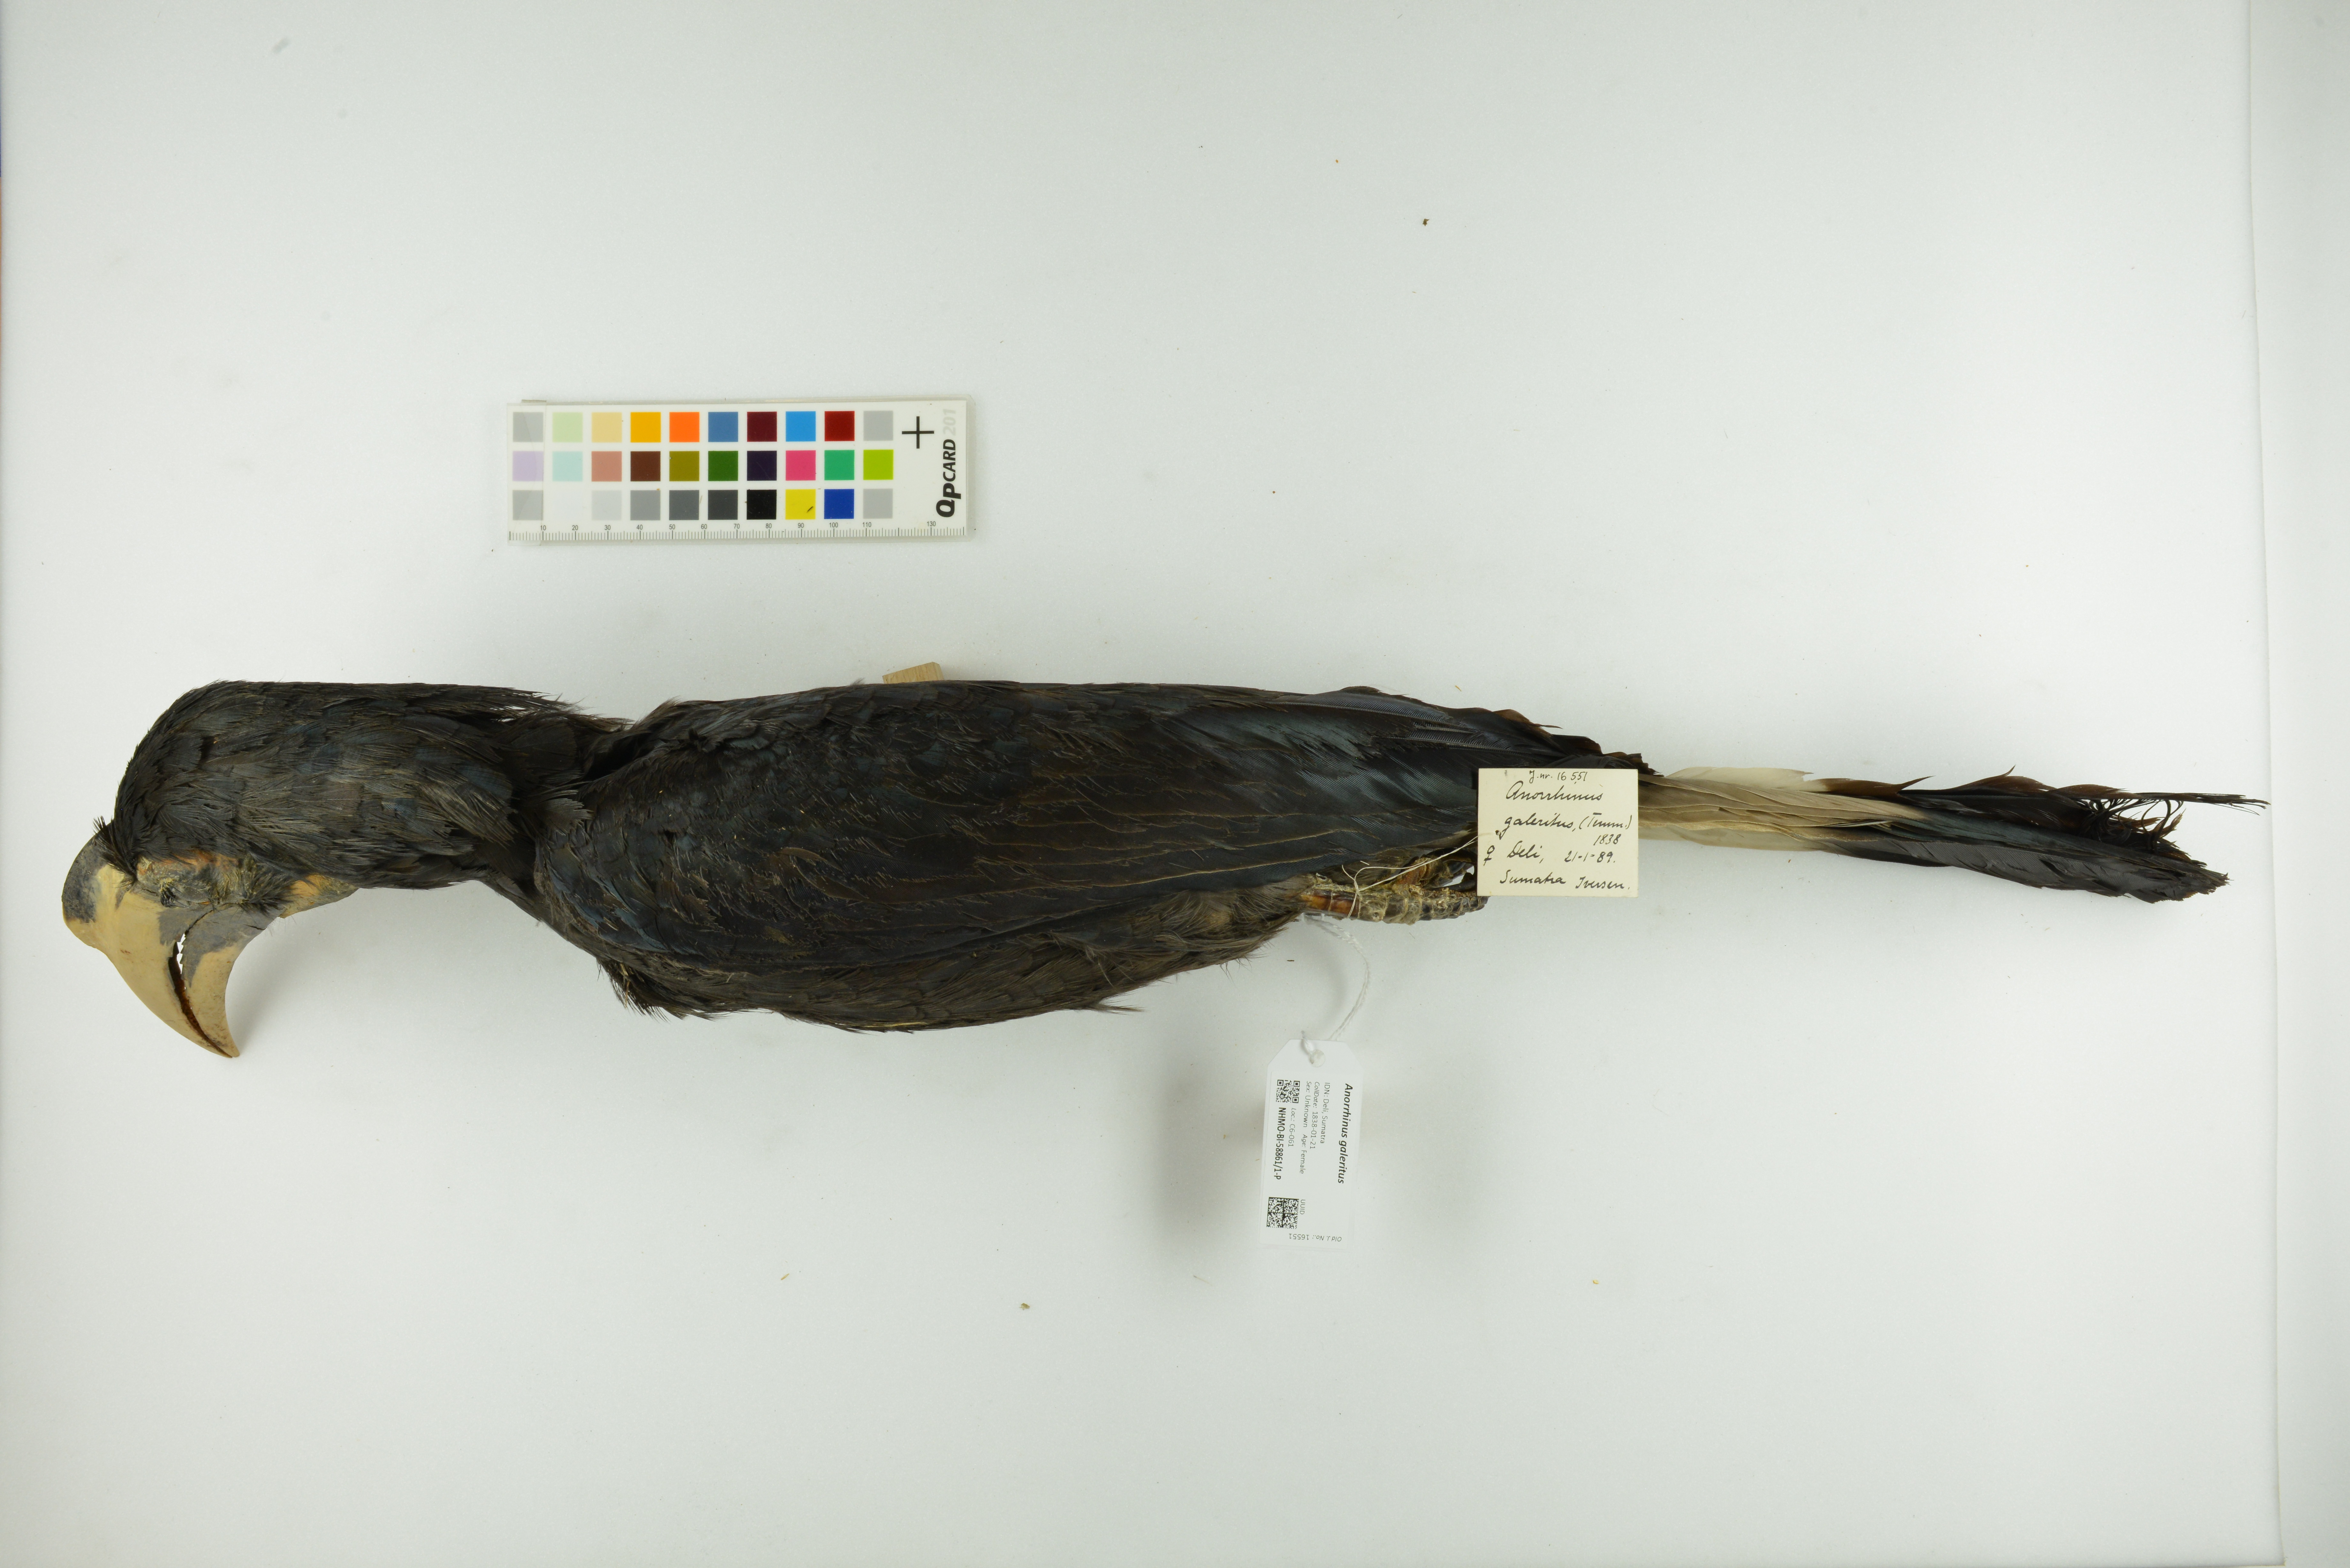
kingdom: Animalia
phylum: Chordata
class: Aves
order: Bucerotiformes
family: Bucerotidae
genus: Anorrhinus
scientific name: Anorrhinus galeritus
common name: Bushy-crested hornbill
